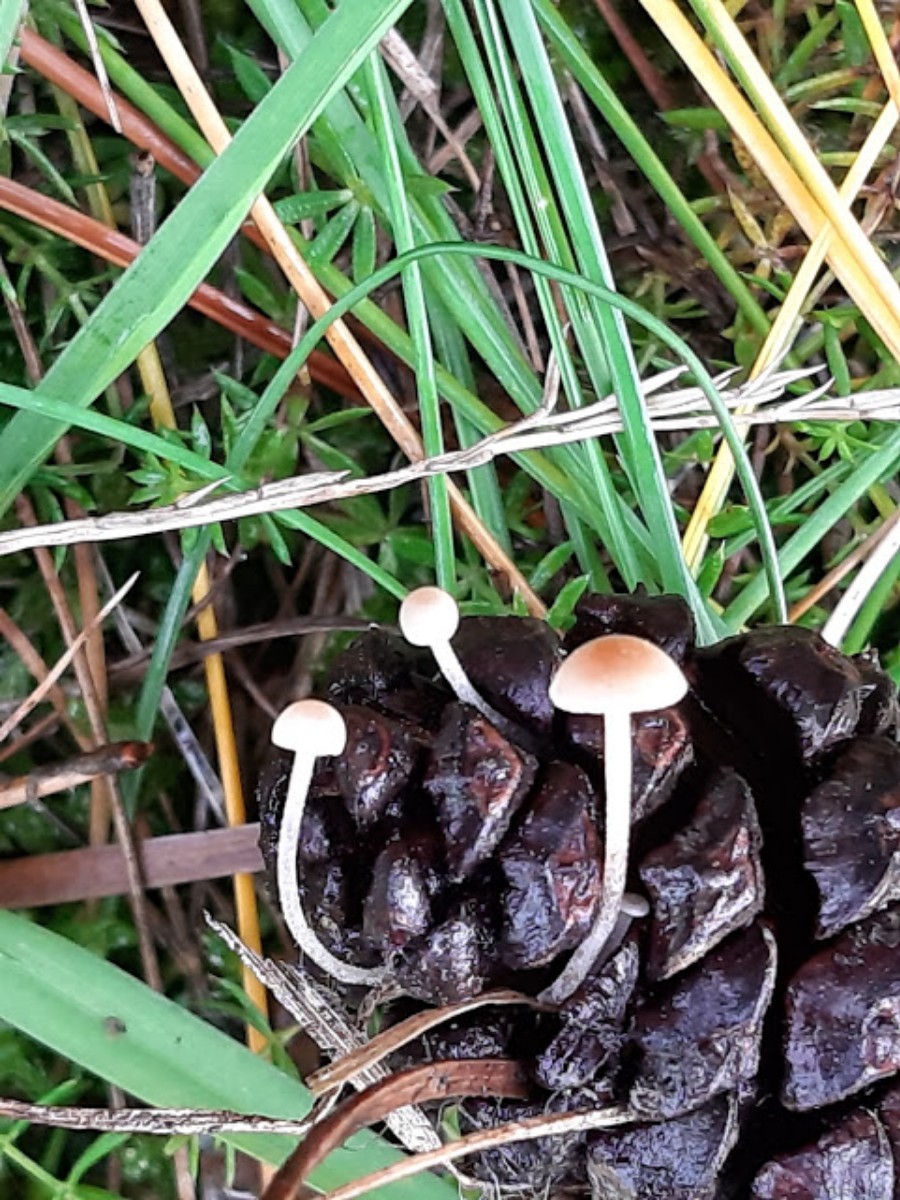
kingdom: Fungi
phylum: Basidiomycota
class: Agaricomycetes
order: Agaricales
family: Marasmiaceae
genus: Baeospora
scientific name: Baeospora myosura
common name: koglebruskhat
